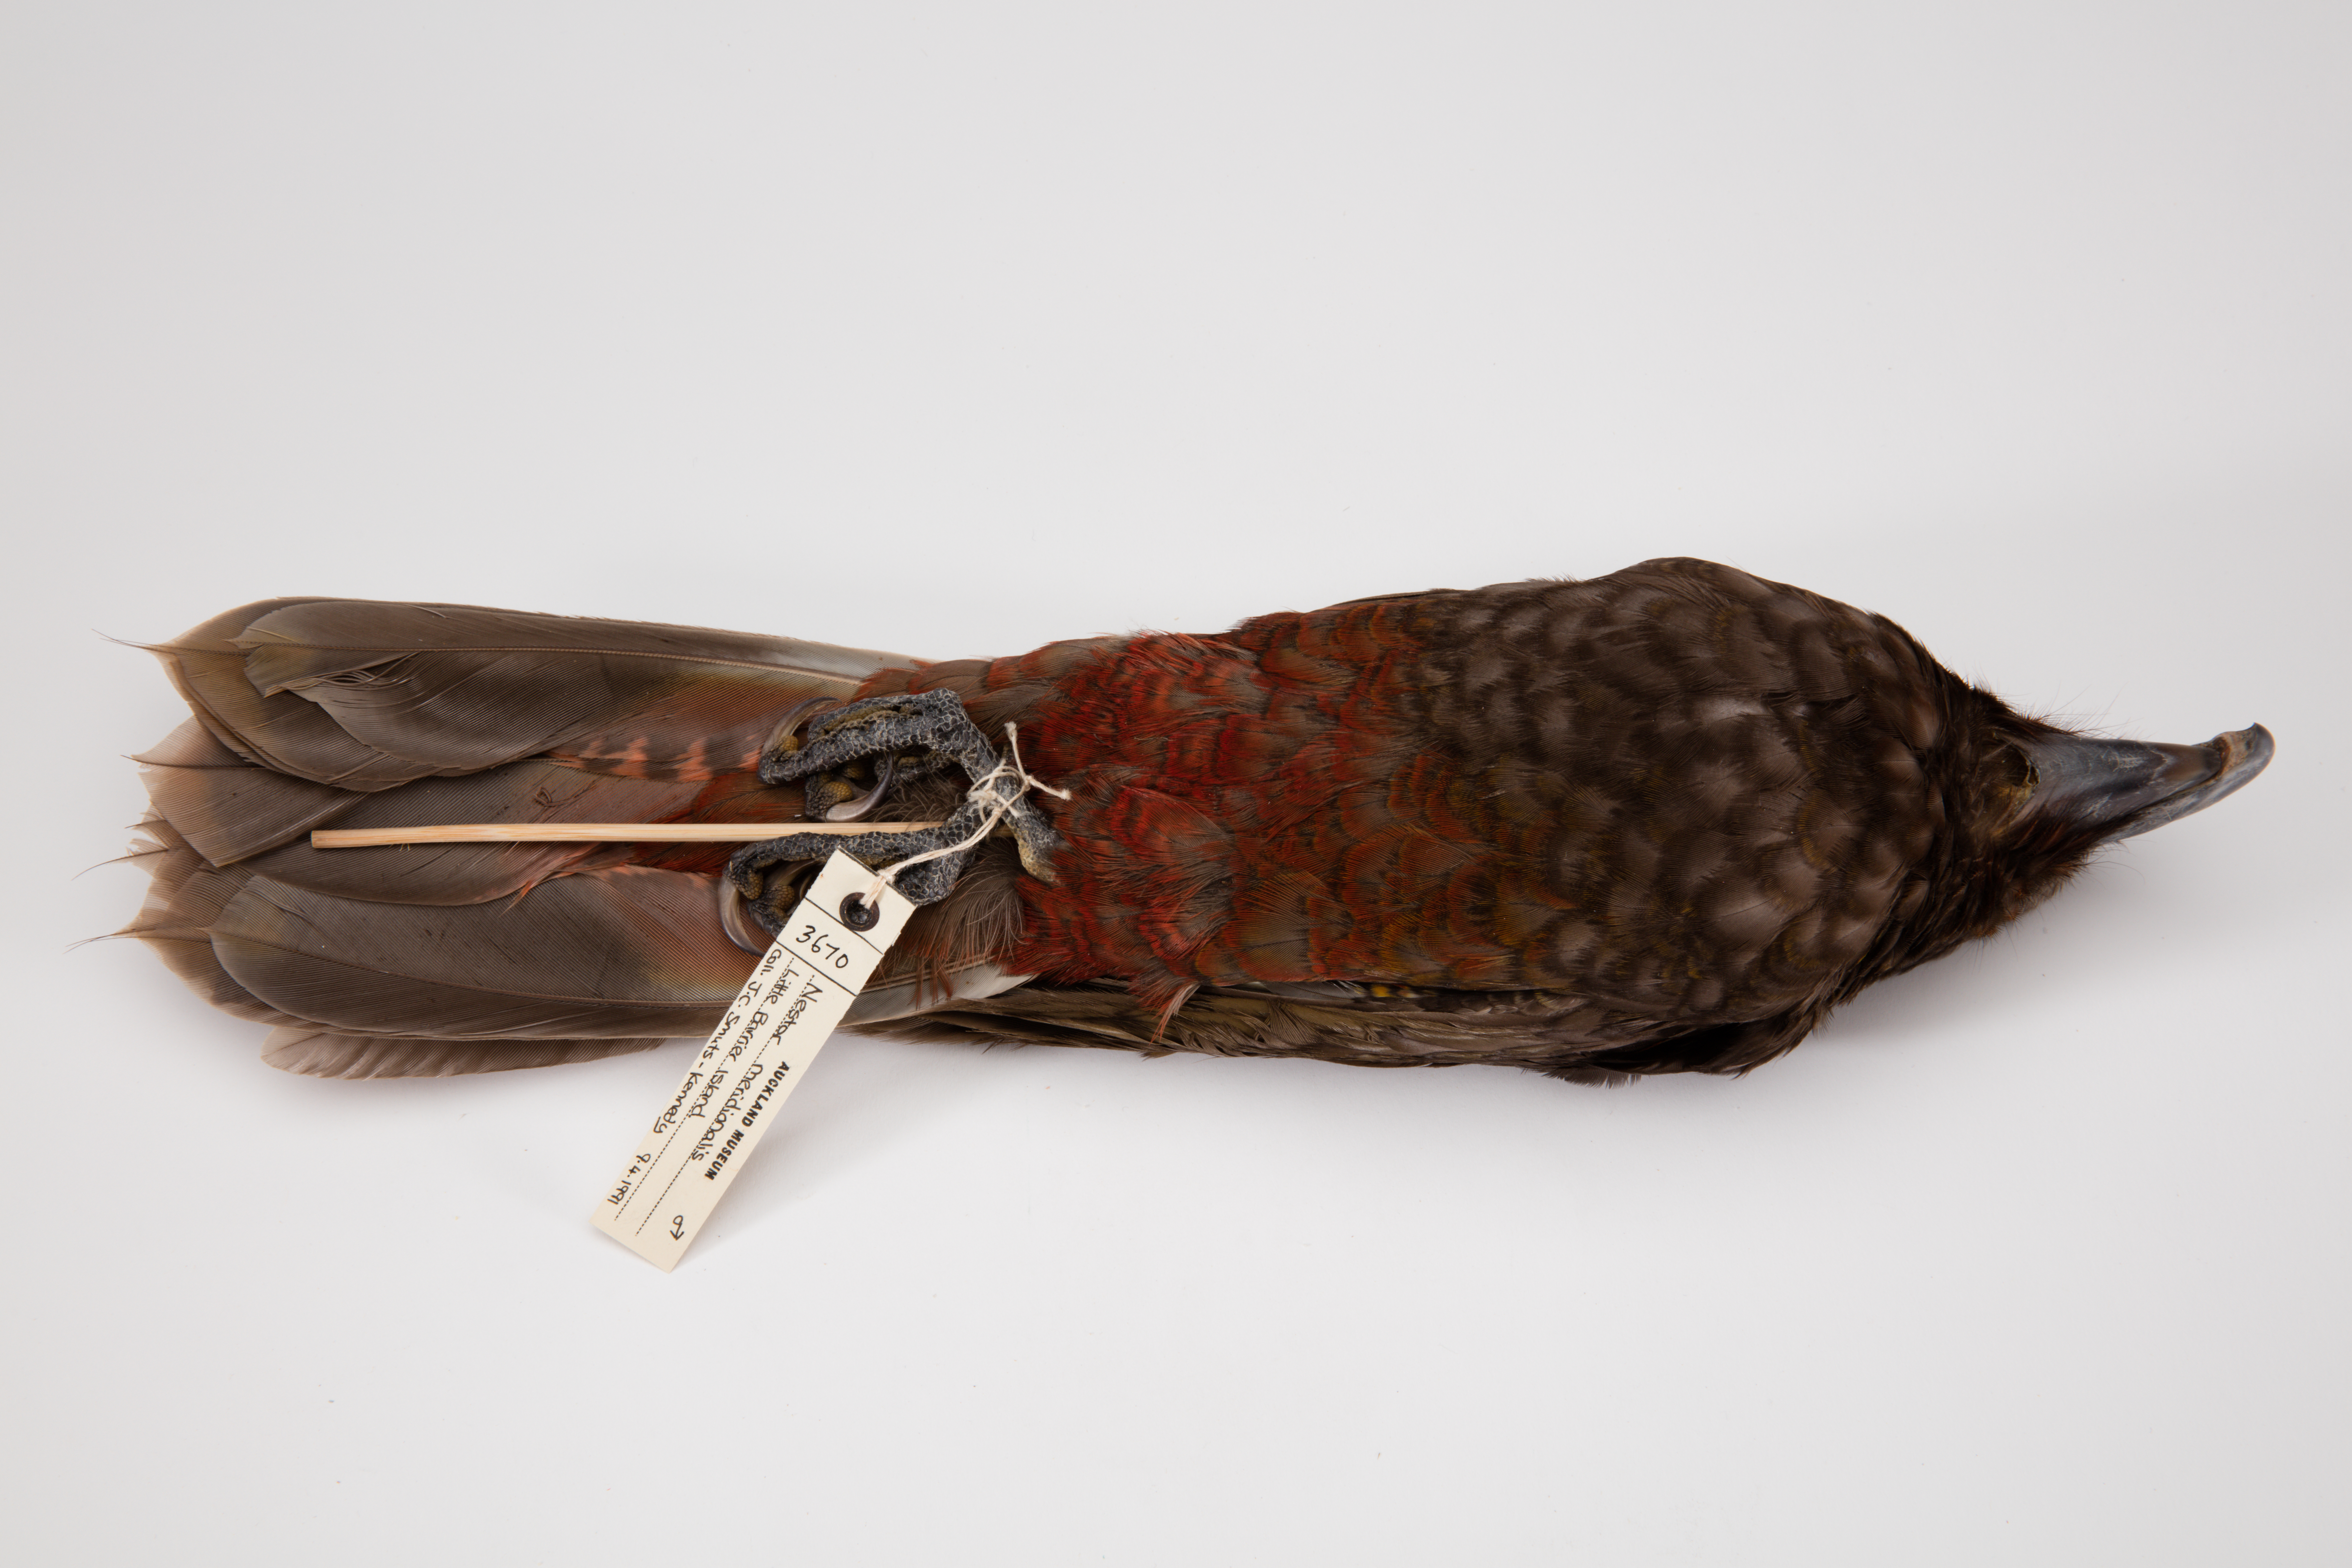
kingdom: Animalia
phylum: Chordata
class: Aves
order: Psittaciformes
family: Psittacidae
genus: Nestor
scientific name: Nestor meridionalis
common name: New zealand kaka
